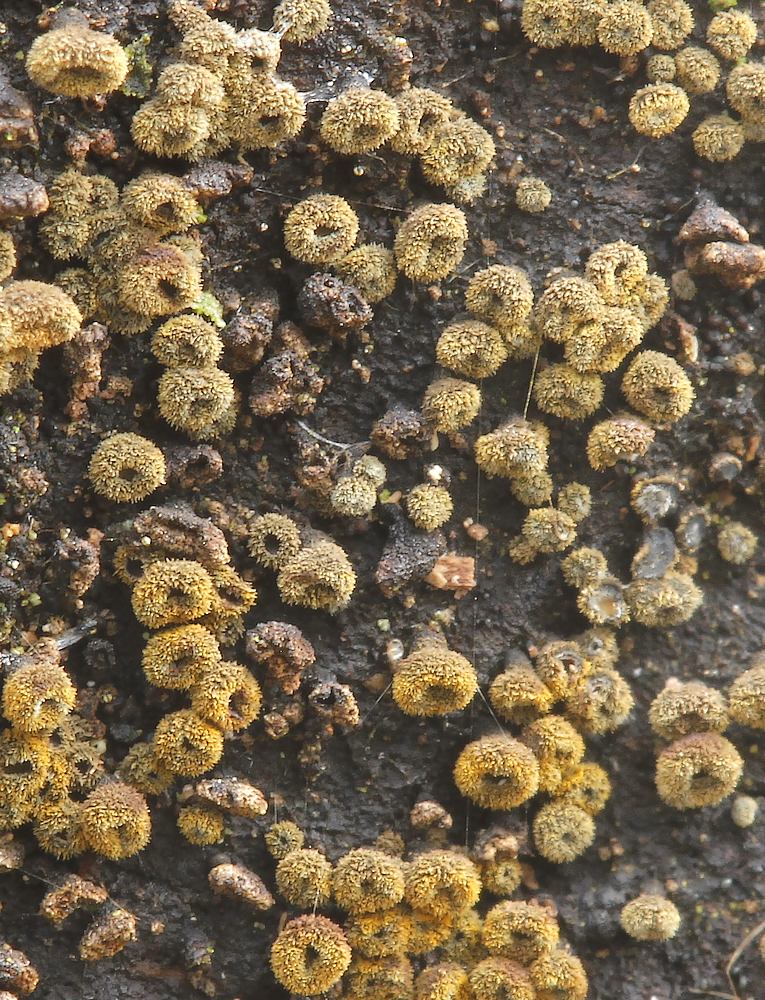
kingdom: Fungi
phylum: Ascomycota
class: Leotiomycetes
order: Helotiales
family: Lachnaceae
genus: Neodasyscypha
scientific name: Neodasyscypha cerina
